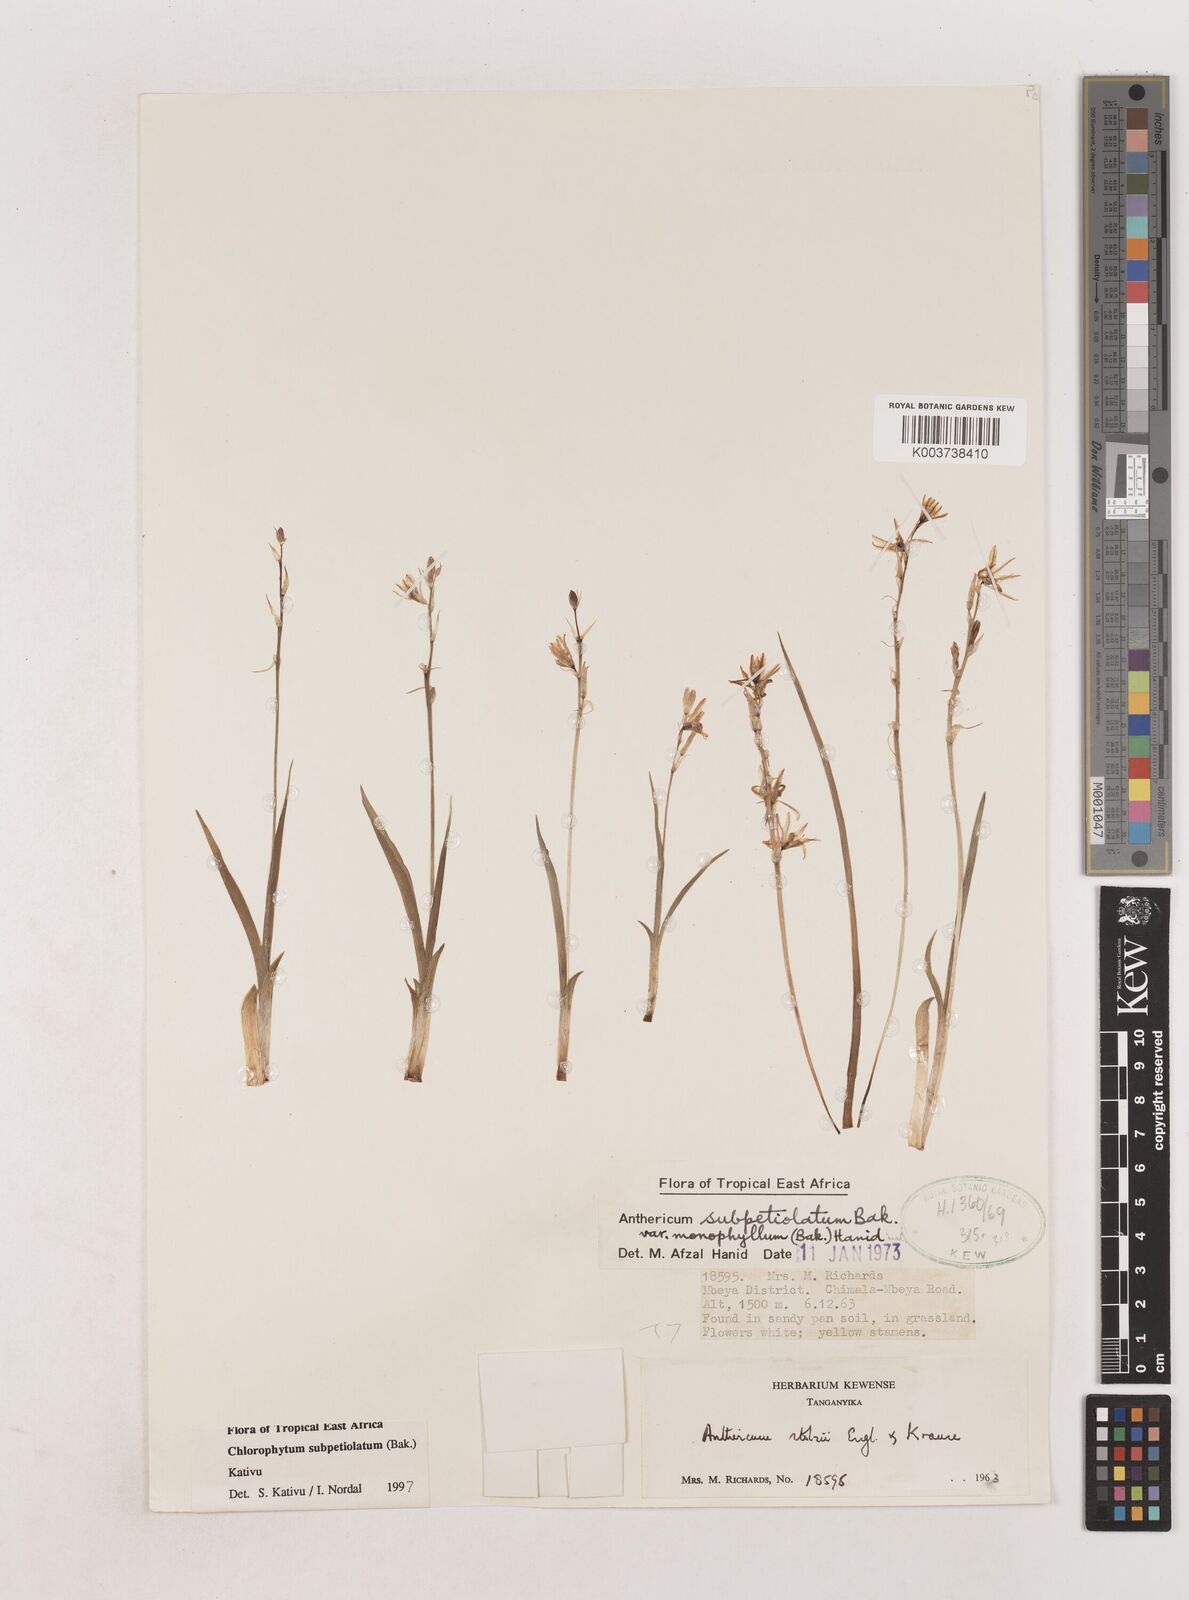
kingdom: Plantae
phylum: Tracheophyta
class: Liliopsida
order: Asparagales
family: Asparagaceae
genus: Chlorophytum
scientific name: Chlorophytum subpetiolatum
